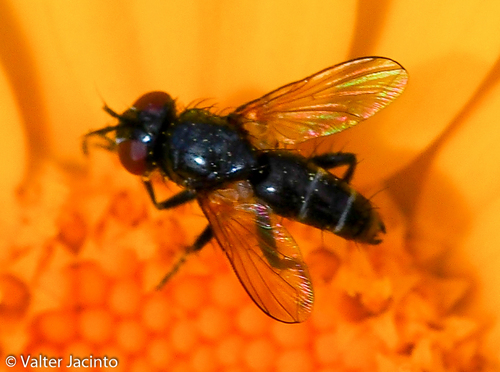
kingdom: Animalia
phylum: Arthropoda
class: Insecta
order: Diptera
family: Tachinidae
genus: Weberia
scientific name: Weberia digramma
